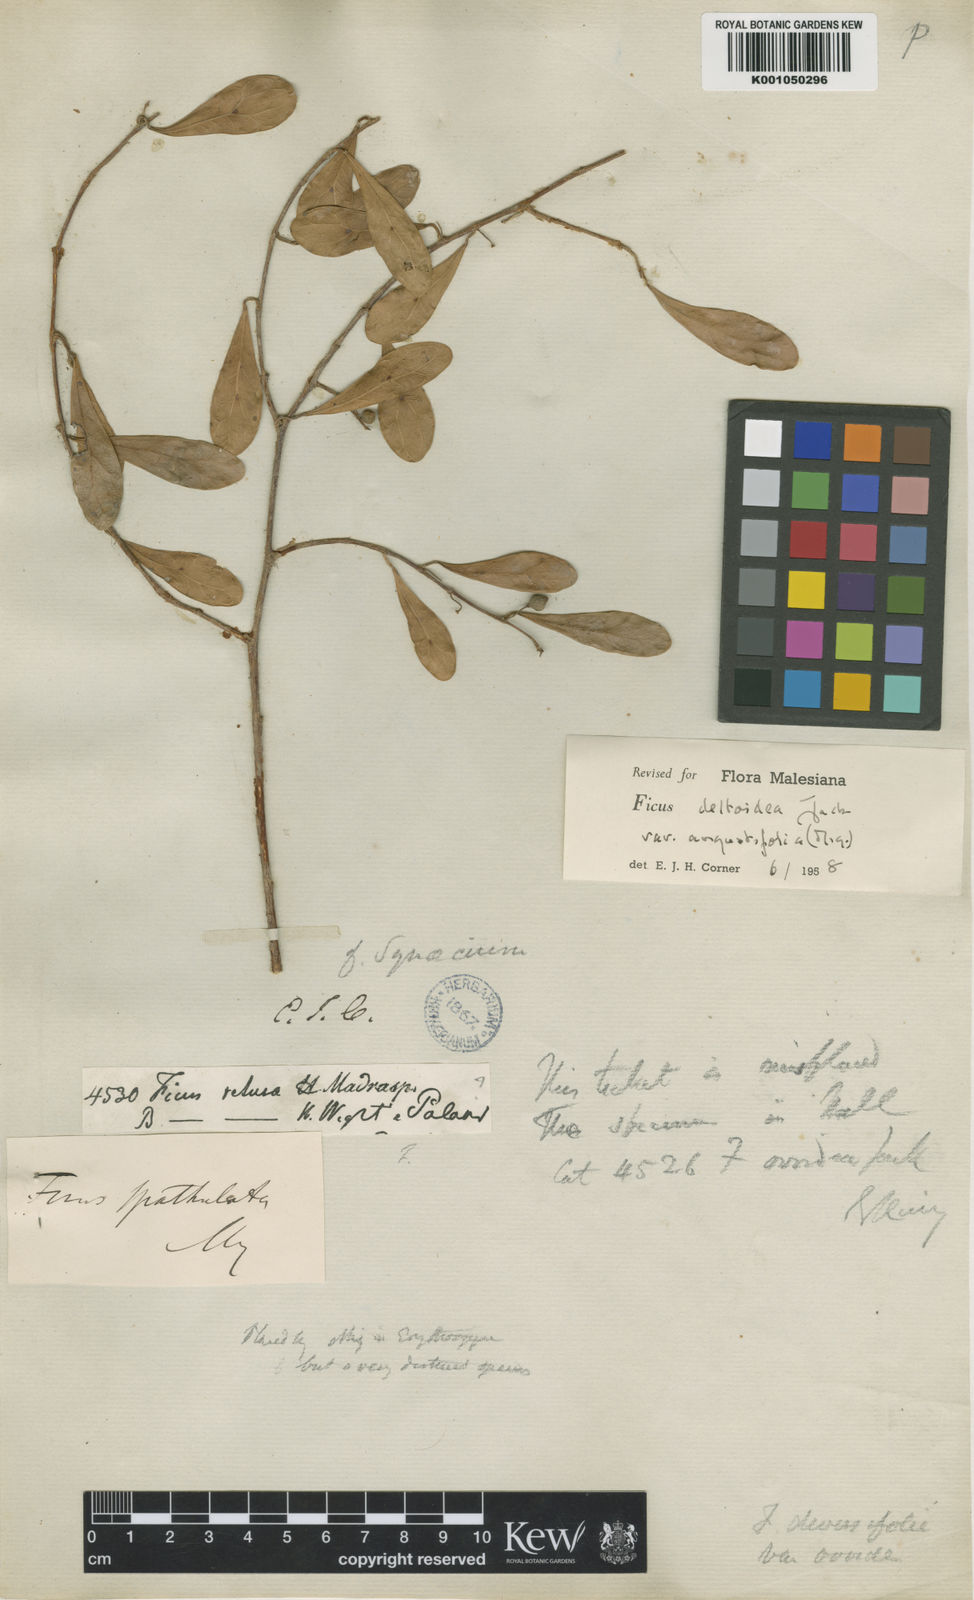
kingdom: Plantae
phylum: Tracheophyta
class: Magnoliopsida
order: Rosales
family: Moraceae
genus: Ficus
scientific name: Ficus deltoidea
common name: Mistletoe fig
